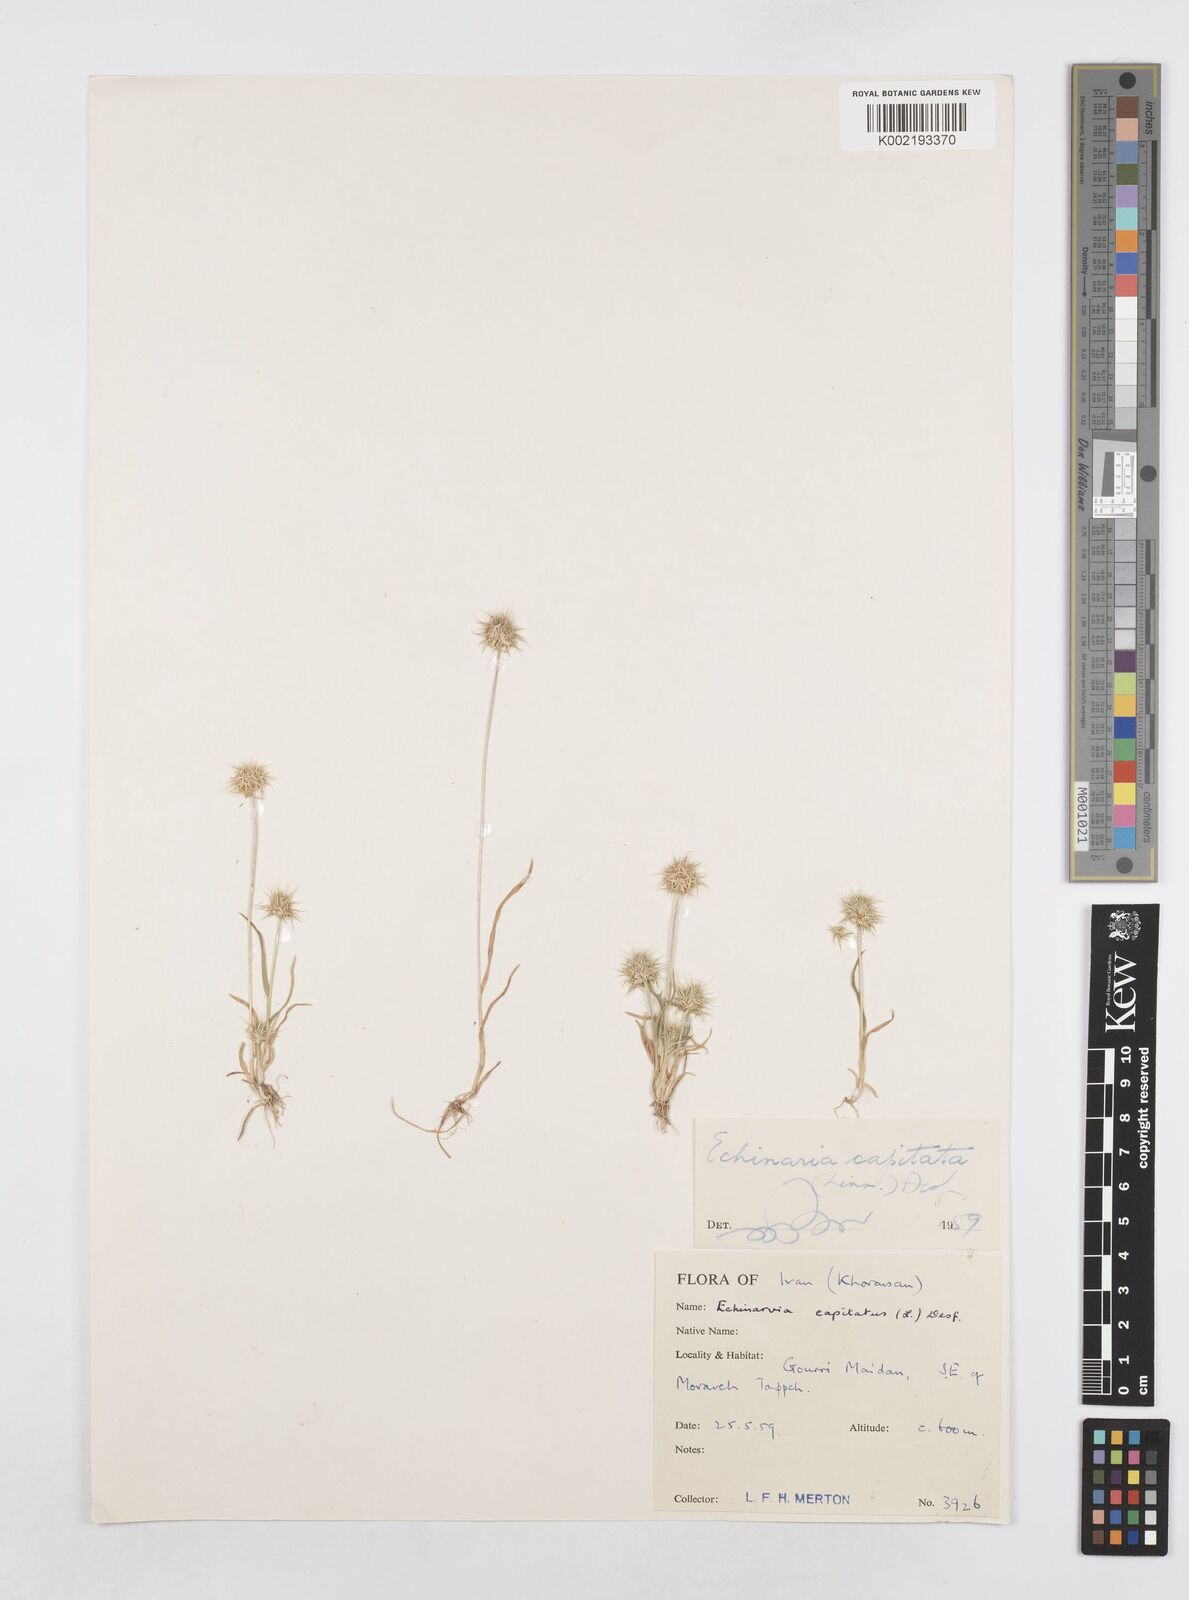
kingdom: Plantae
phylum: Tracheophyta
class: Liliopsida
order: Poales
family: Poaceae
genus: Echinaria
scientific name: Echinaria capitata
